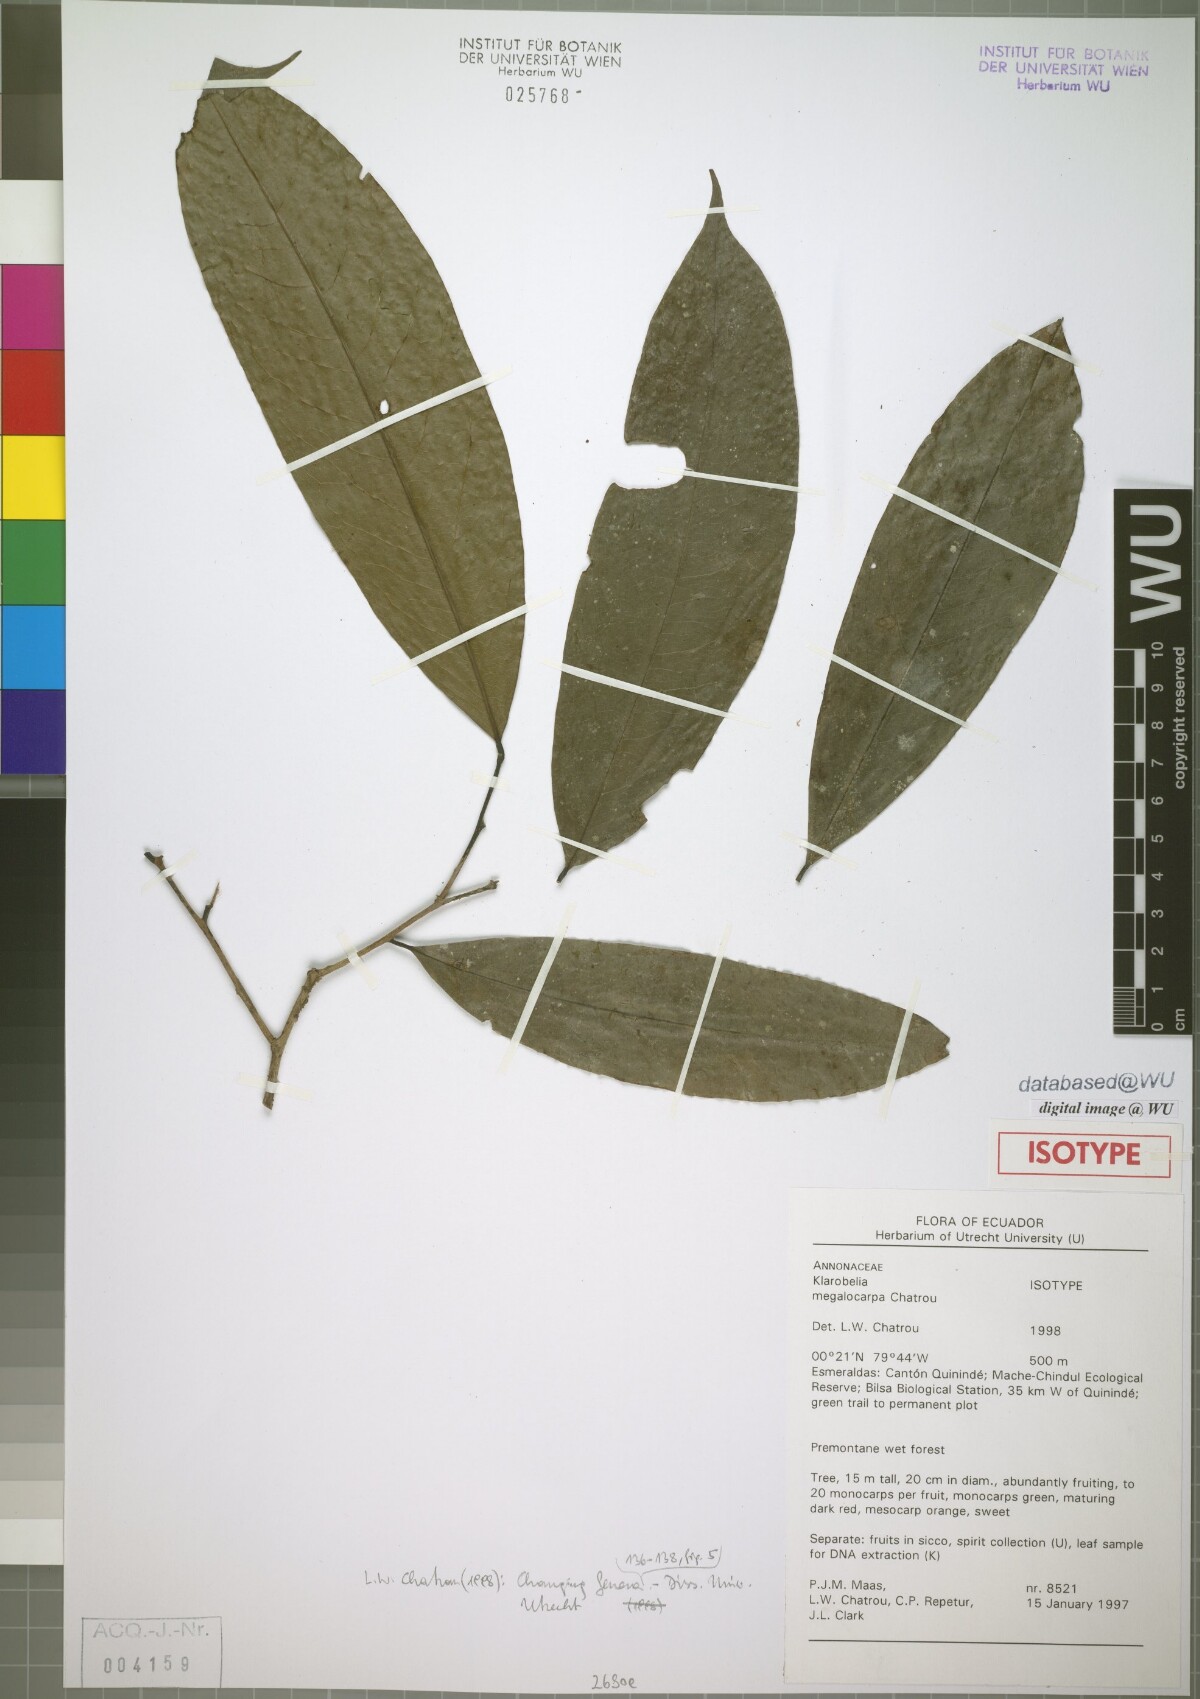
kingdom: Plantae
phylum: Tracheophyta
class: Magnoliopsida
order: Magnoliales
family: Annonaceae
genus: Klarobelia
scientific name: Klarobelia megalocarpa
